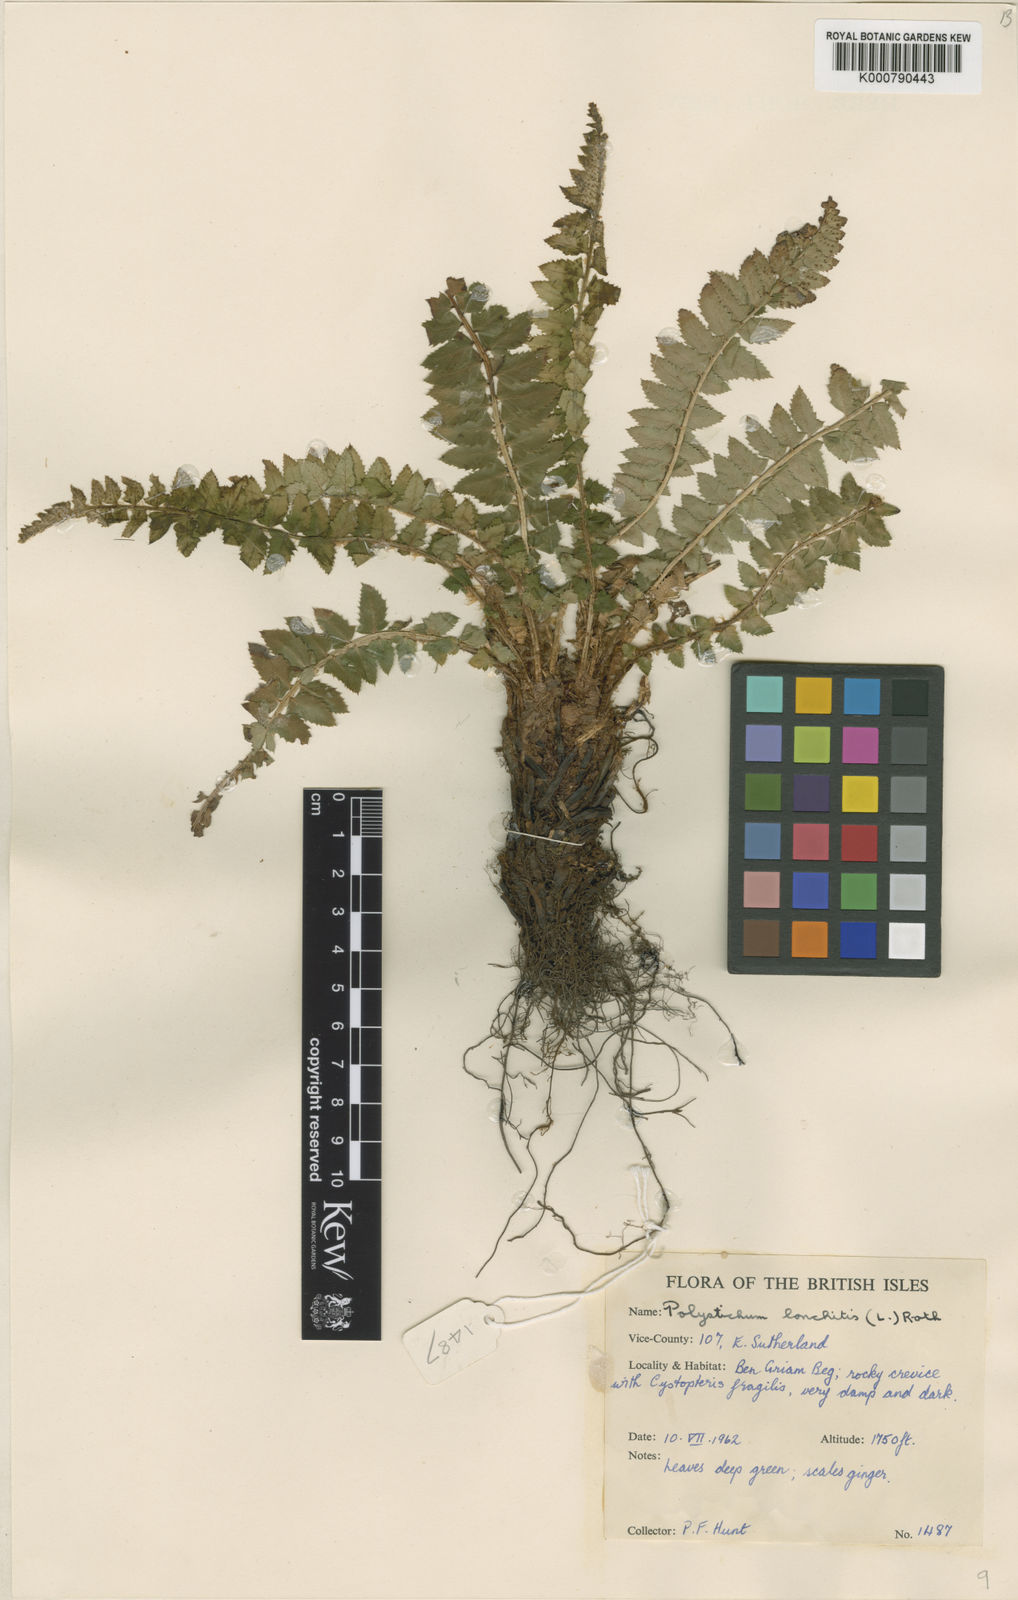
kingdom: Plantae
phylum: Tracheophyta
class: Polypodiopsida
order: Polypodiales
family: Dryopteridaceae
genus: Polystichum
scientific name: Polystichum lonchitis
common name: Holly fern
